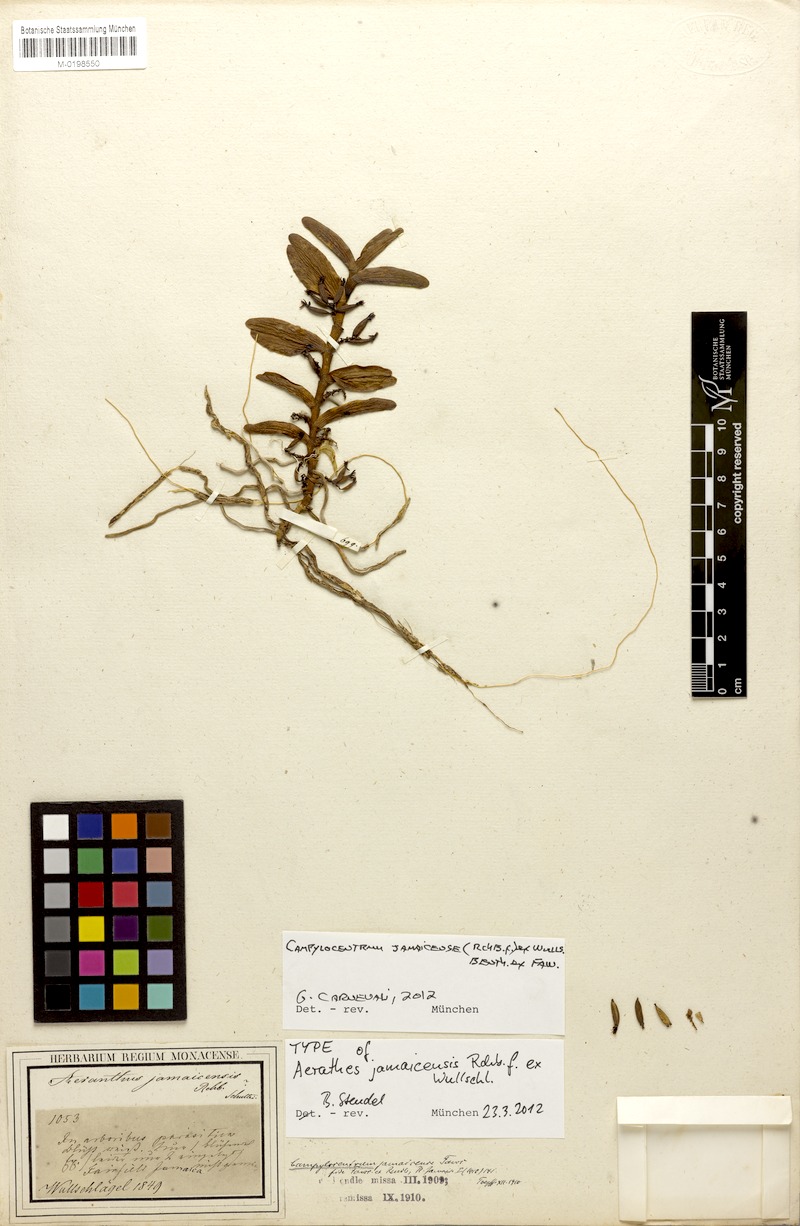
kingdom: Plantae
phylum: Tracheophyta
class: Liliopsida
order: Asparagales
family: Orchidaceae
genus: Campylocentrum
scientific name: Campylocentrum jamaicense
